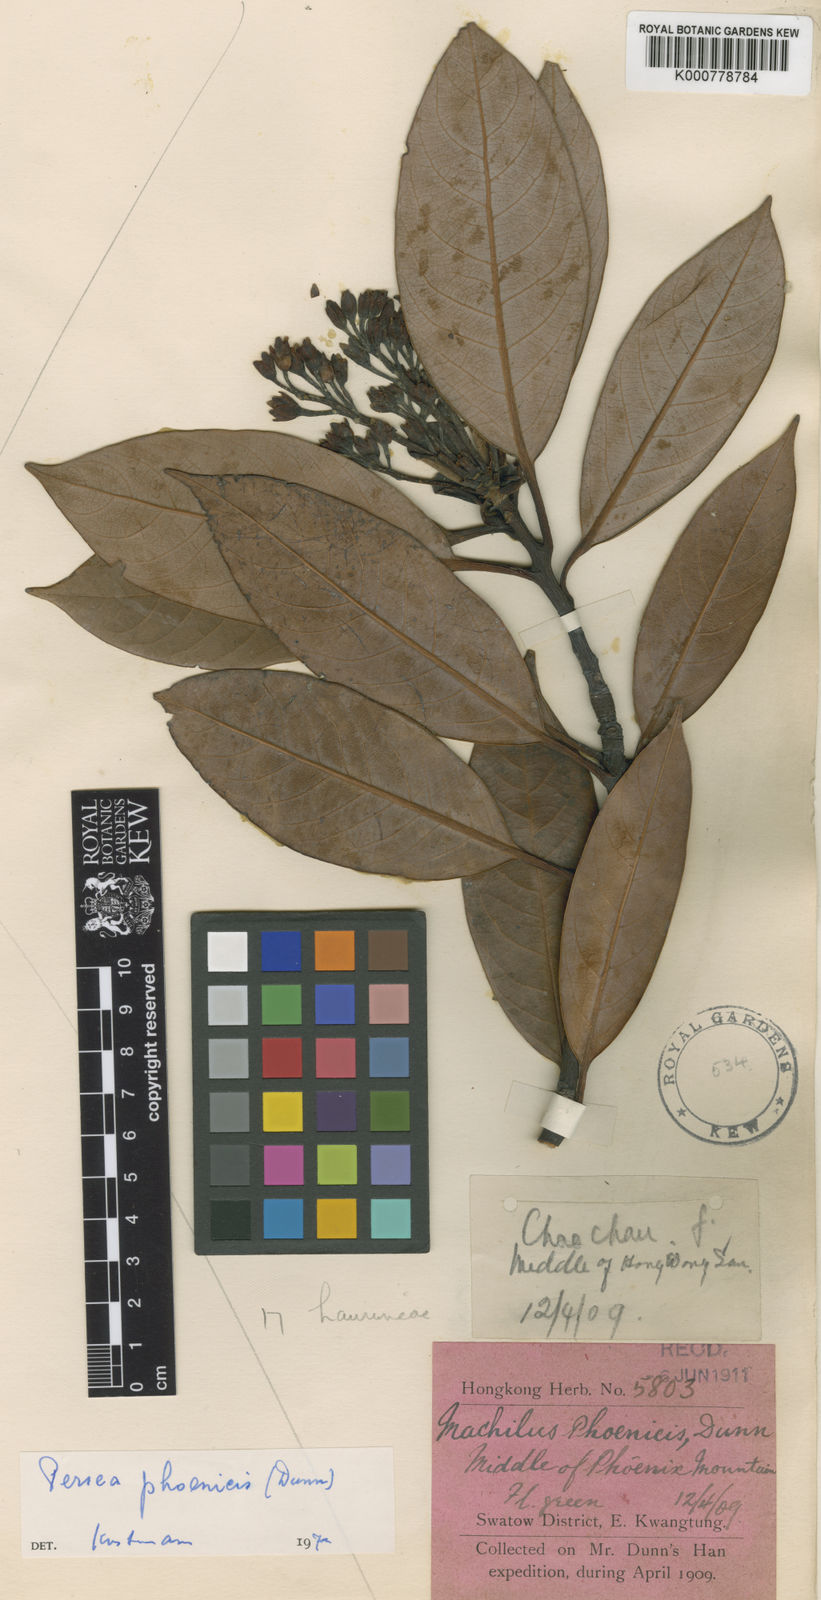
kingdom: Plantae
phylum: Tracheophyta
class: Magnoliopsida
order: Laurales
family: Lauraceae
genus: Machilus
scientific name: Machilus phoenicis
